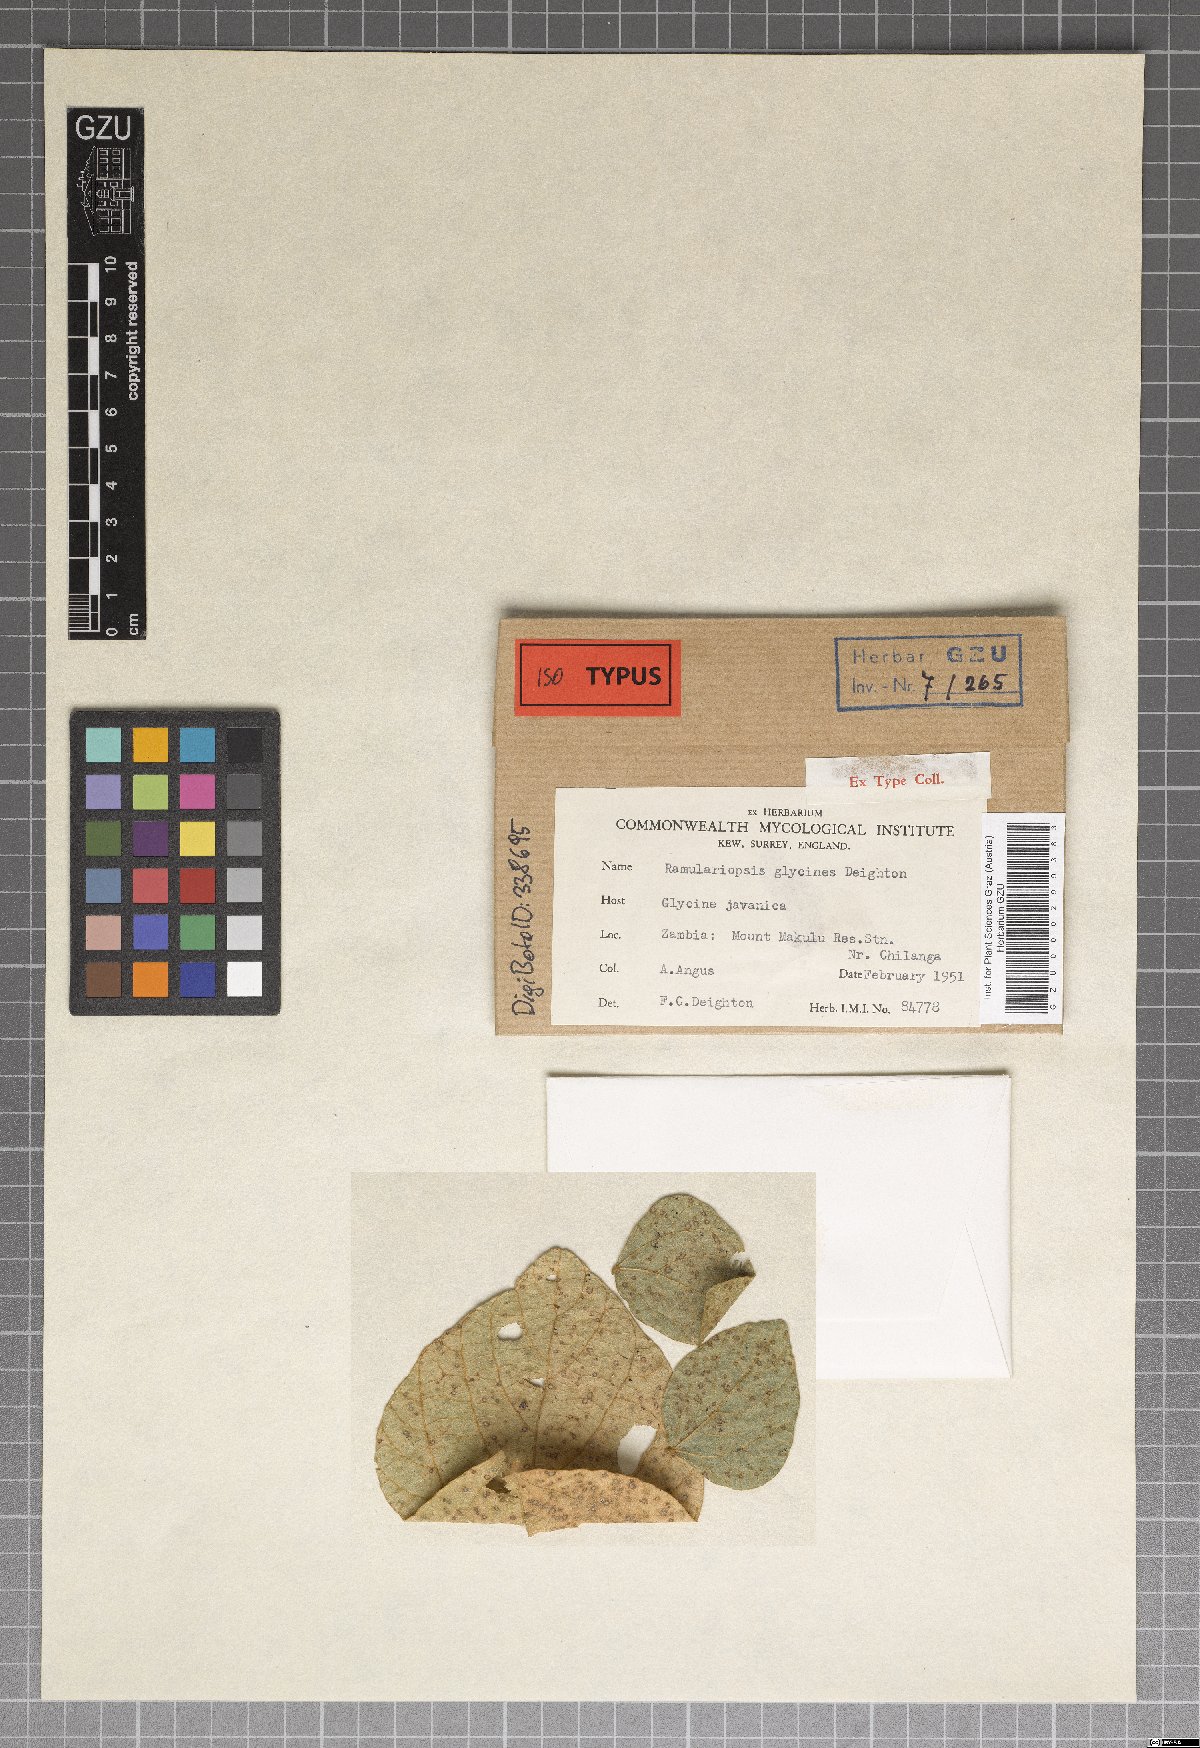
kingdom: Fungi
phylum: Ascomycota
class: Dothideomycetes
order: Mycosphaerellales
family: Mycosphaerellaceae
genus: Ramulariopsis
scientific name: Ramulariopsis glycines
